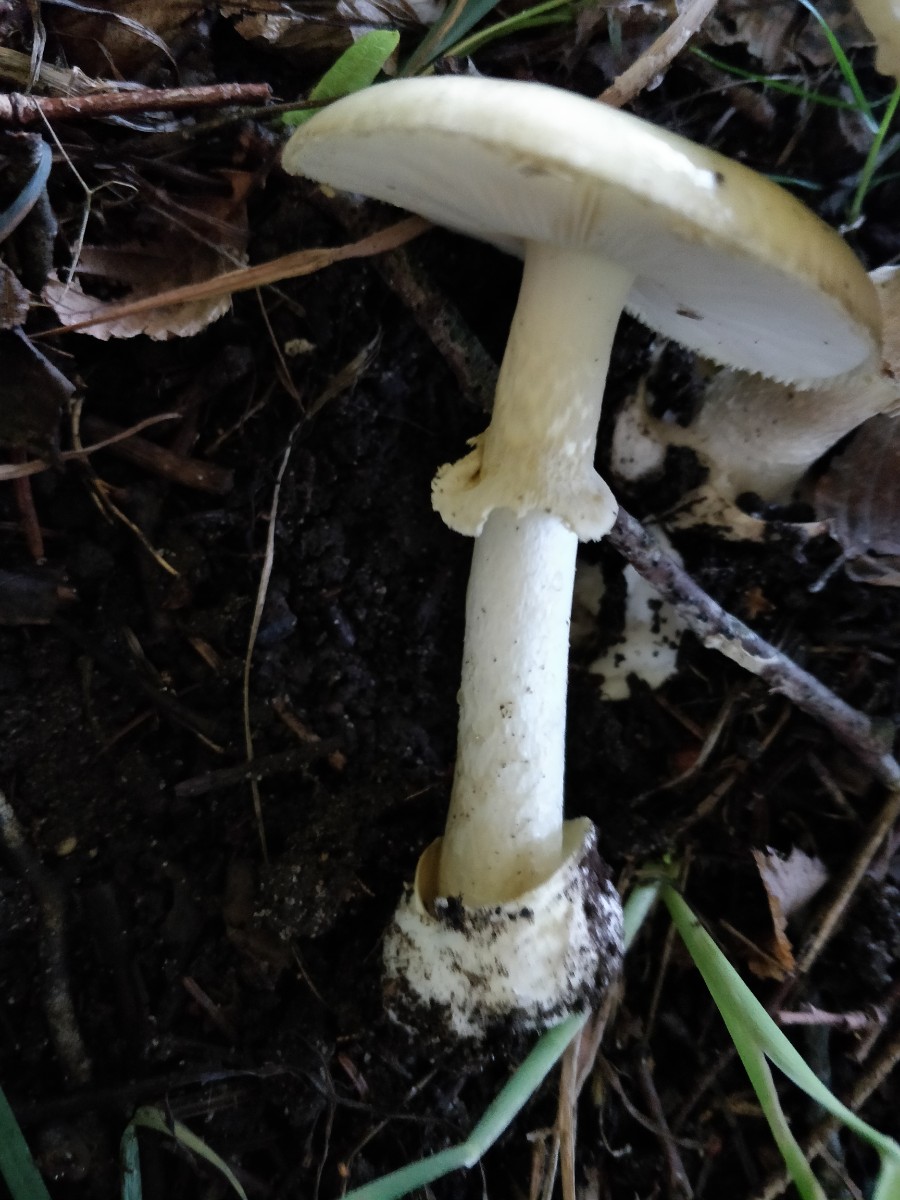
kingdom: Fungi
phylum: Basidiomycota
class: Agaricomycetes
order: Agaricales
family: Amanitaceae
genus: Amanita
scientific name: Amanita phalloides
